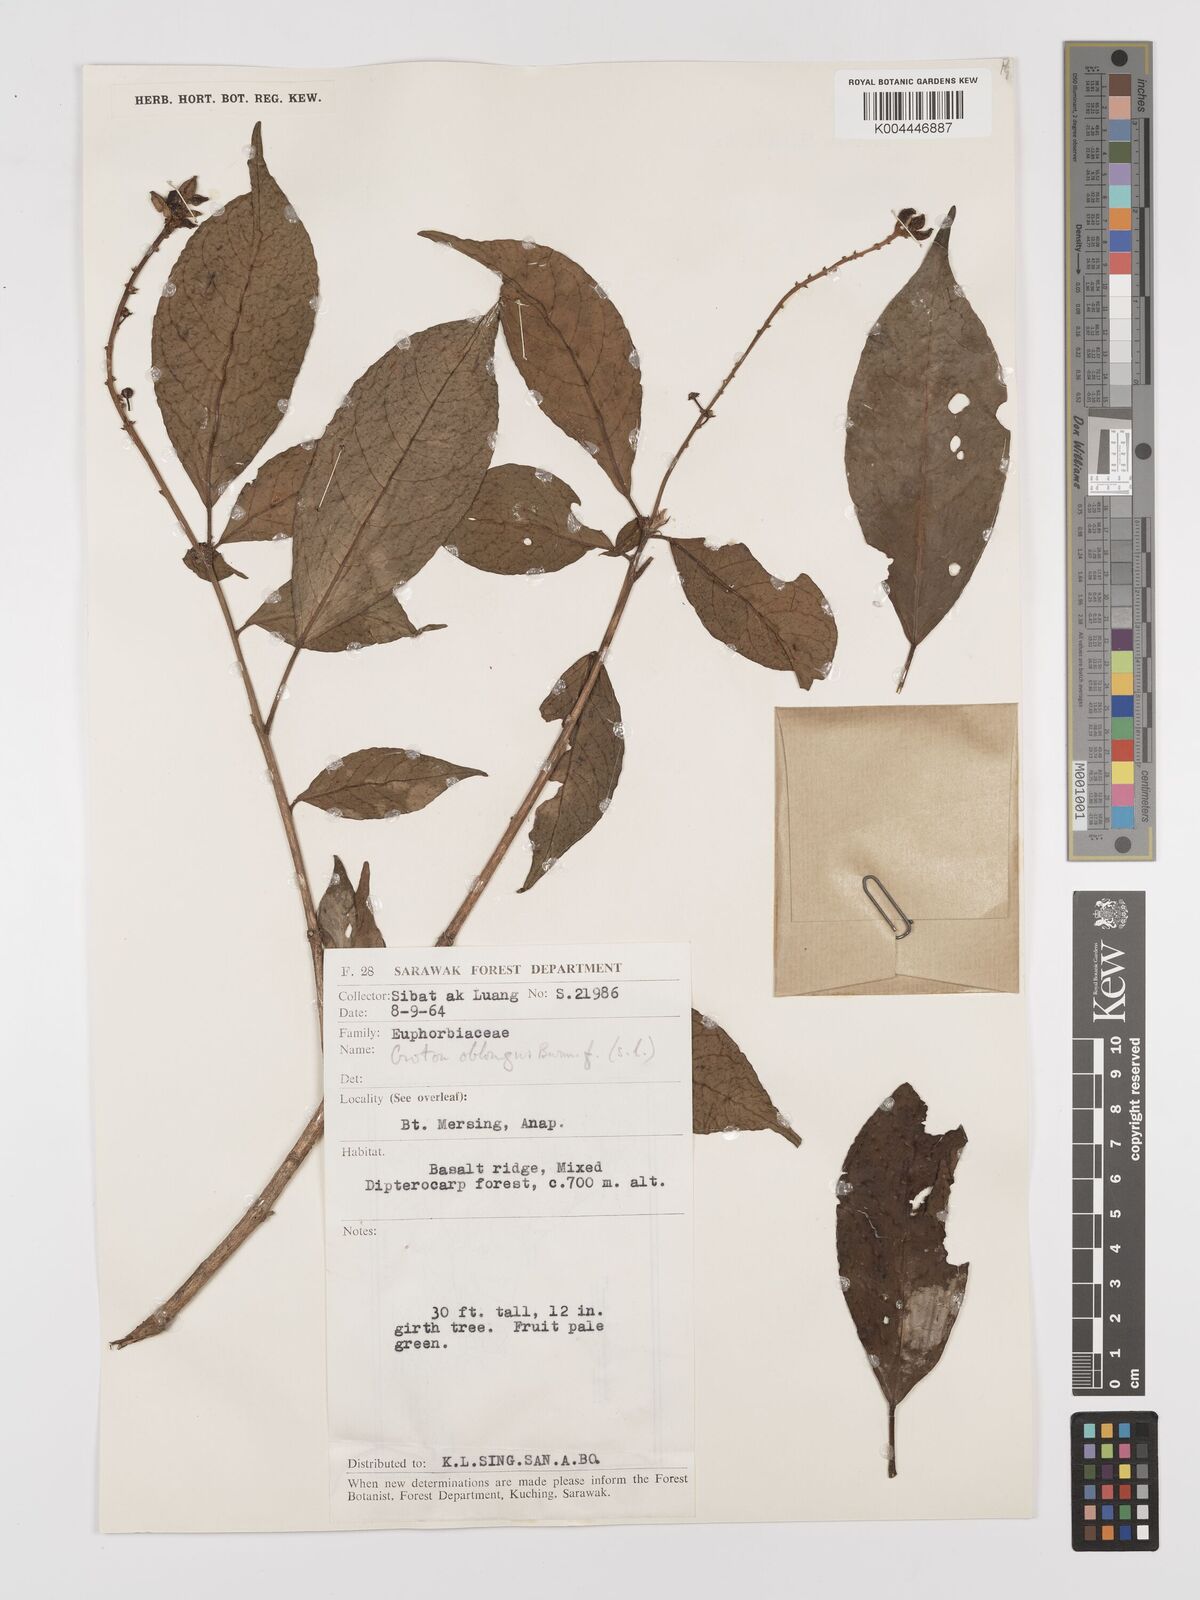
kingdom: Plantae
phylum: Tracheophyta
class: Magnoliopsida
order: Malpighiales
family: Euphorbiaceae
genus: Croton
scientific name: Croton oblongus
